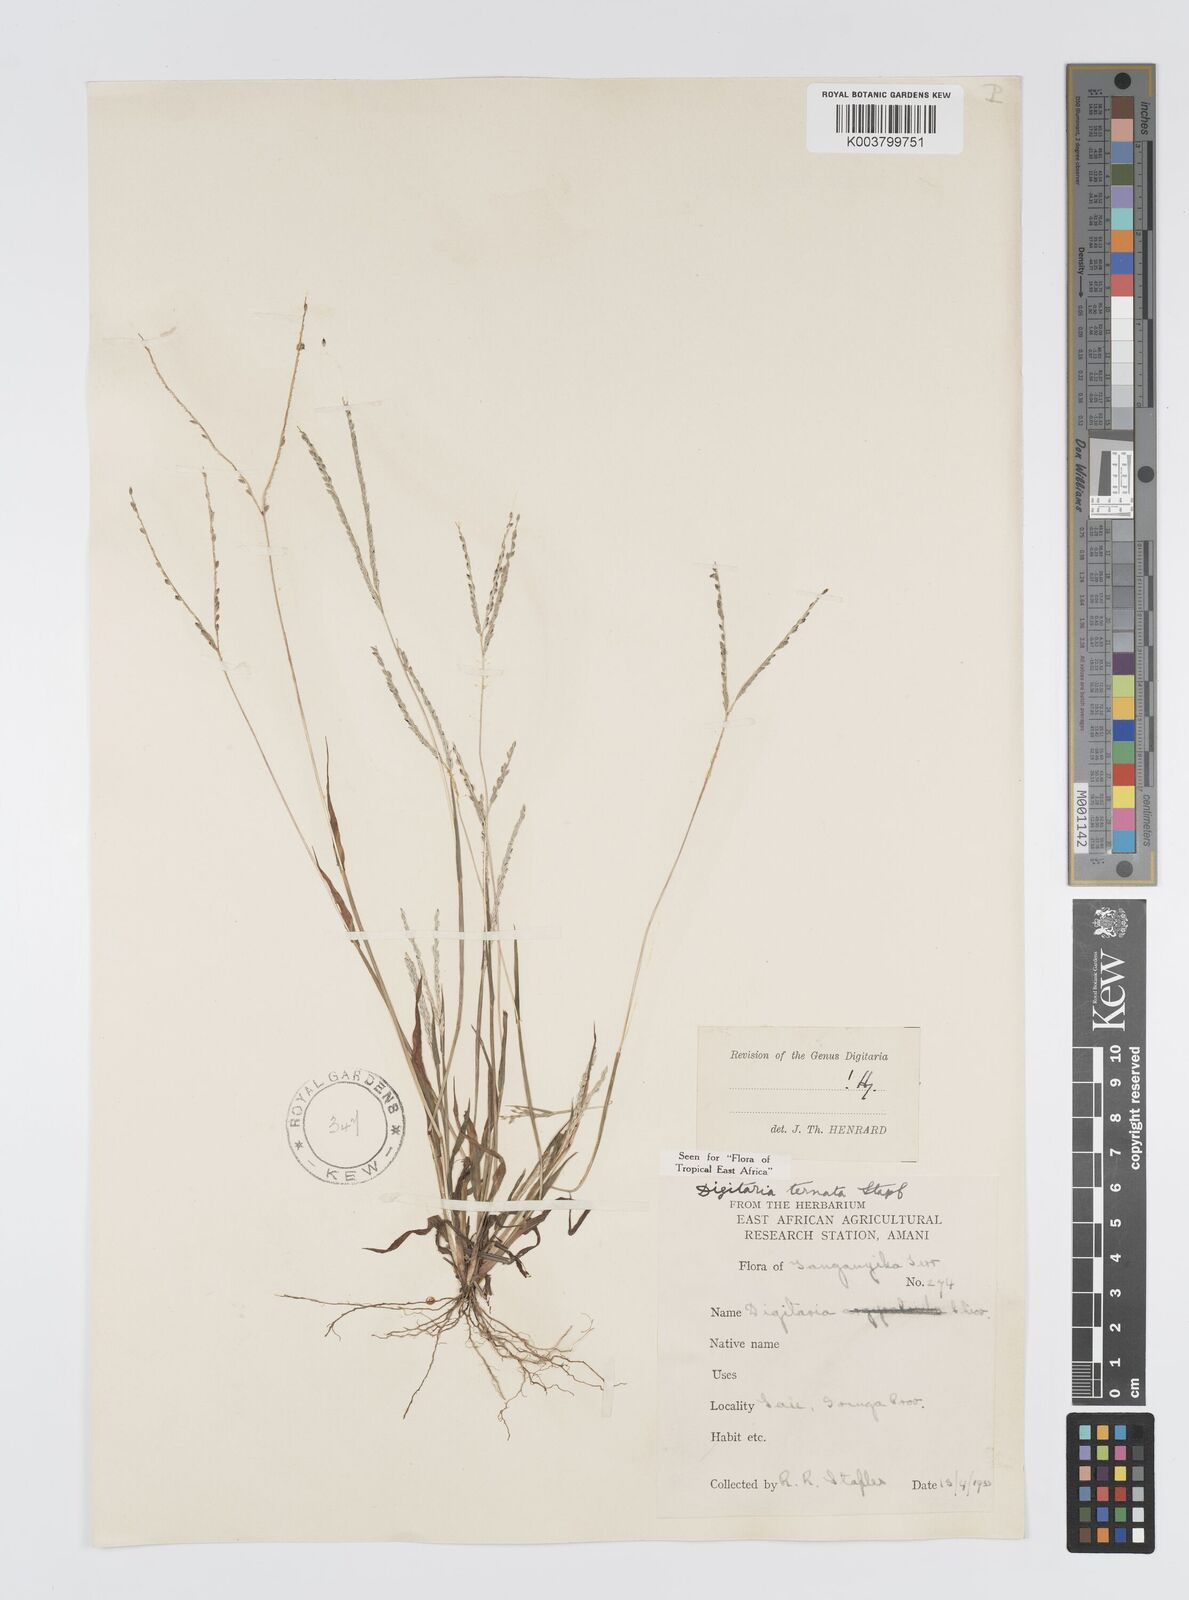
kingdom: Plantae
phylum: Tracheophyta
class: Liliopsida
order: Poales
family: Poaceae
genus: Digitaria
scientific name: Digitaria ternata
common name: Blackseed crabgrass
